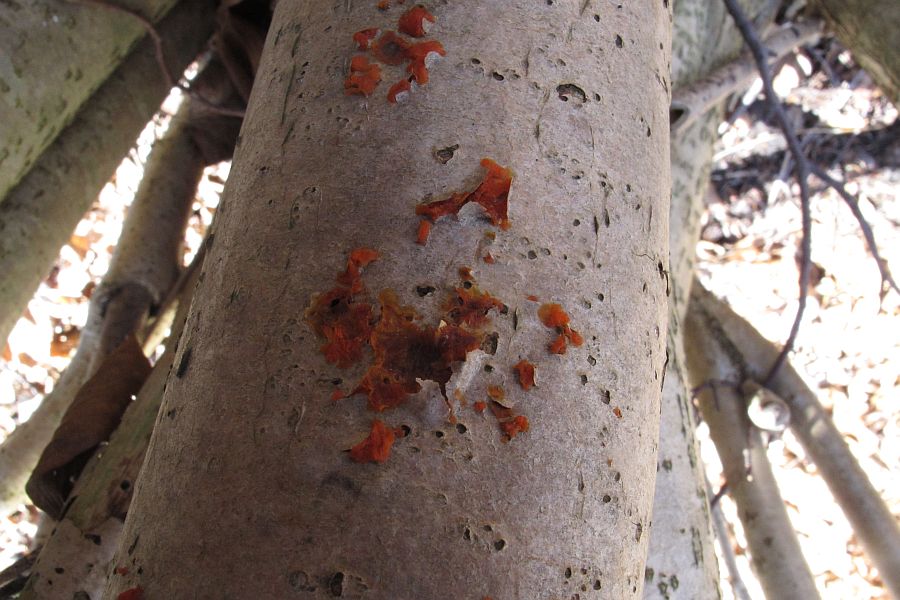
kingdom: Fungi
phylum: Basidiomycota
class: Tremellomycetes
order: Tremellales
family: Tremellaceae
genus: Tremella
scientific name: Tremella mesenterica
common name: gul bævresvamp
